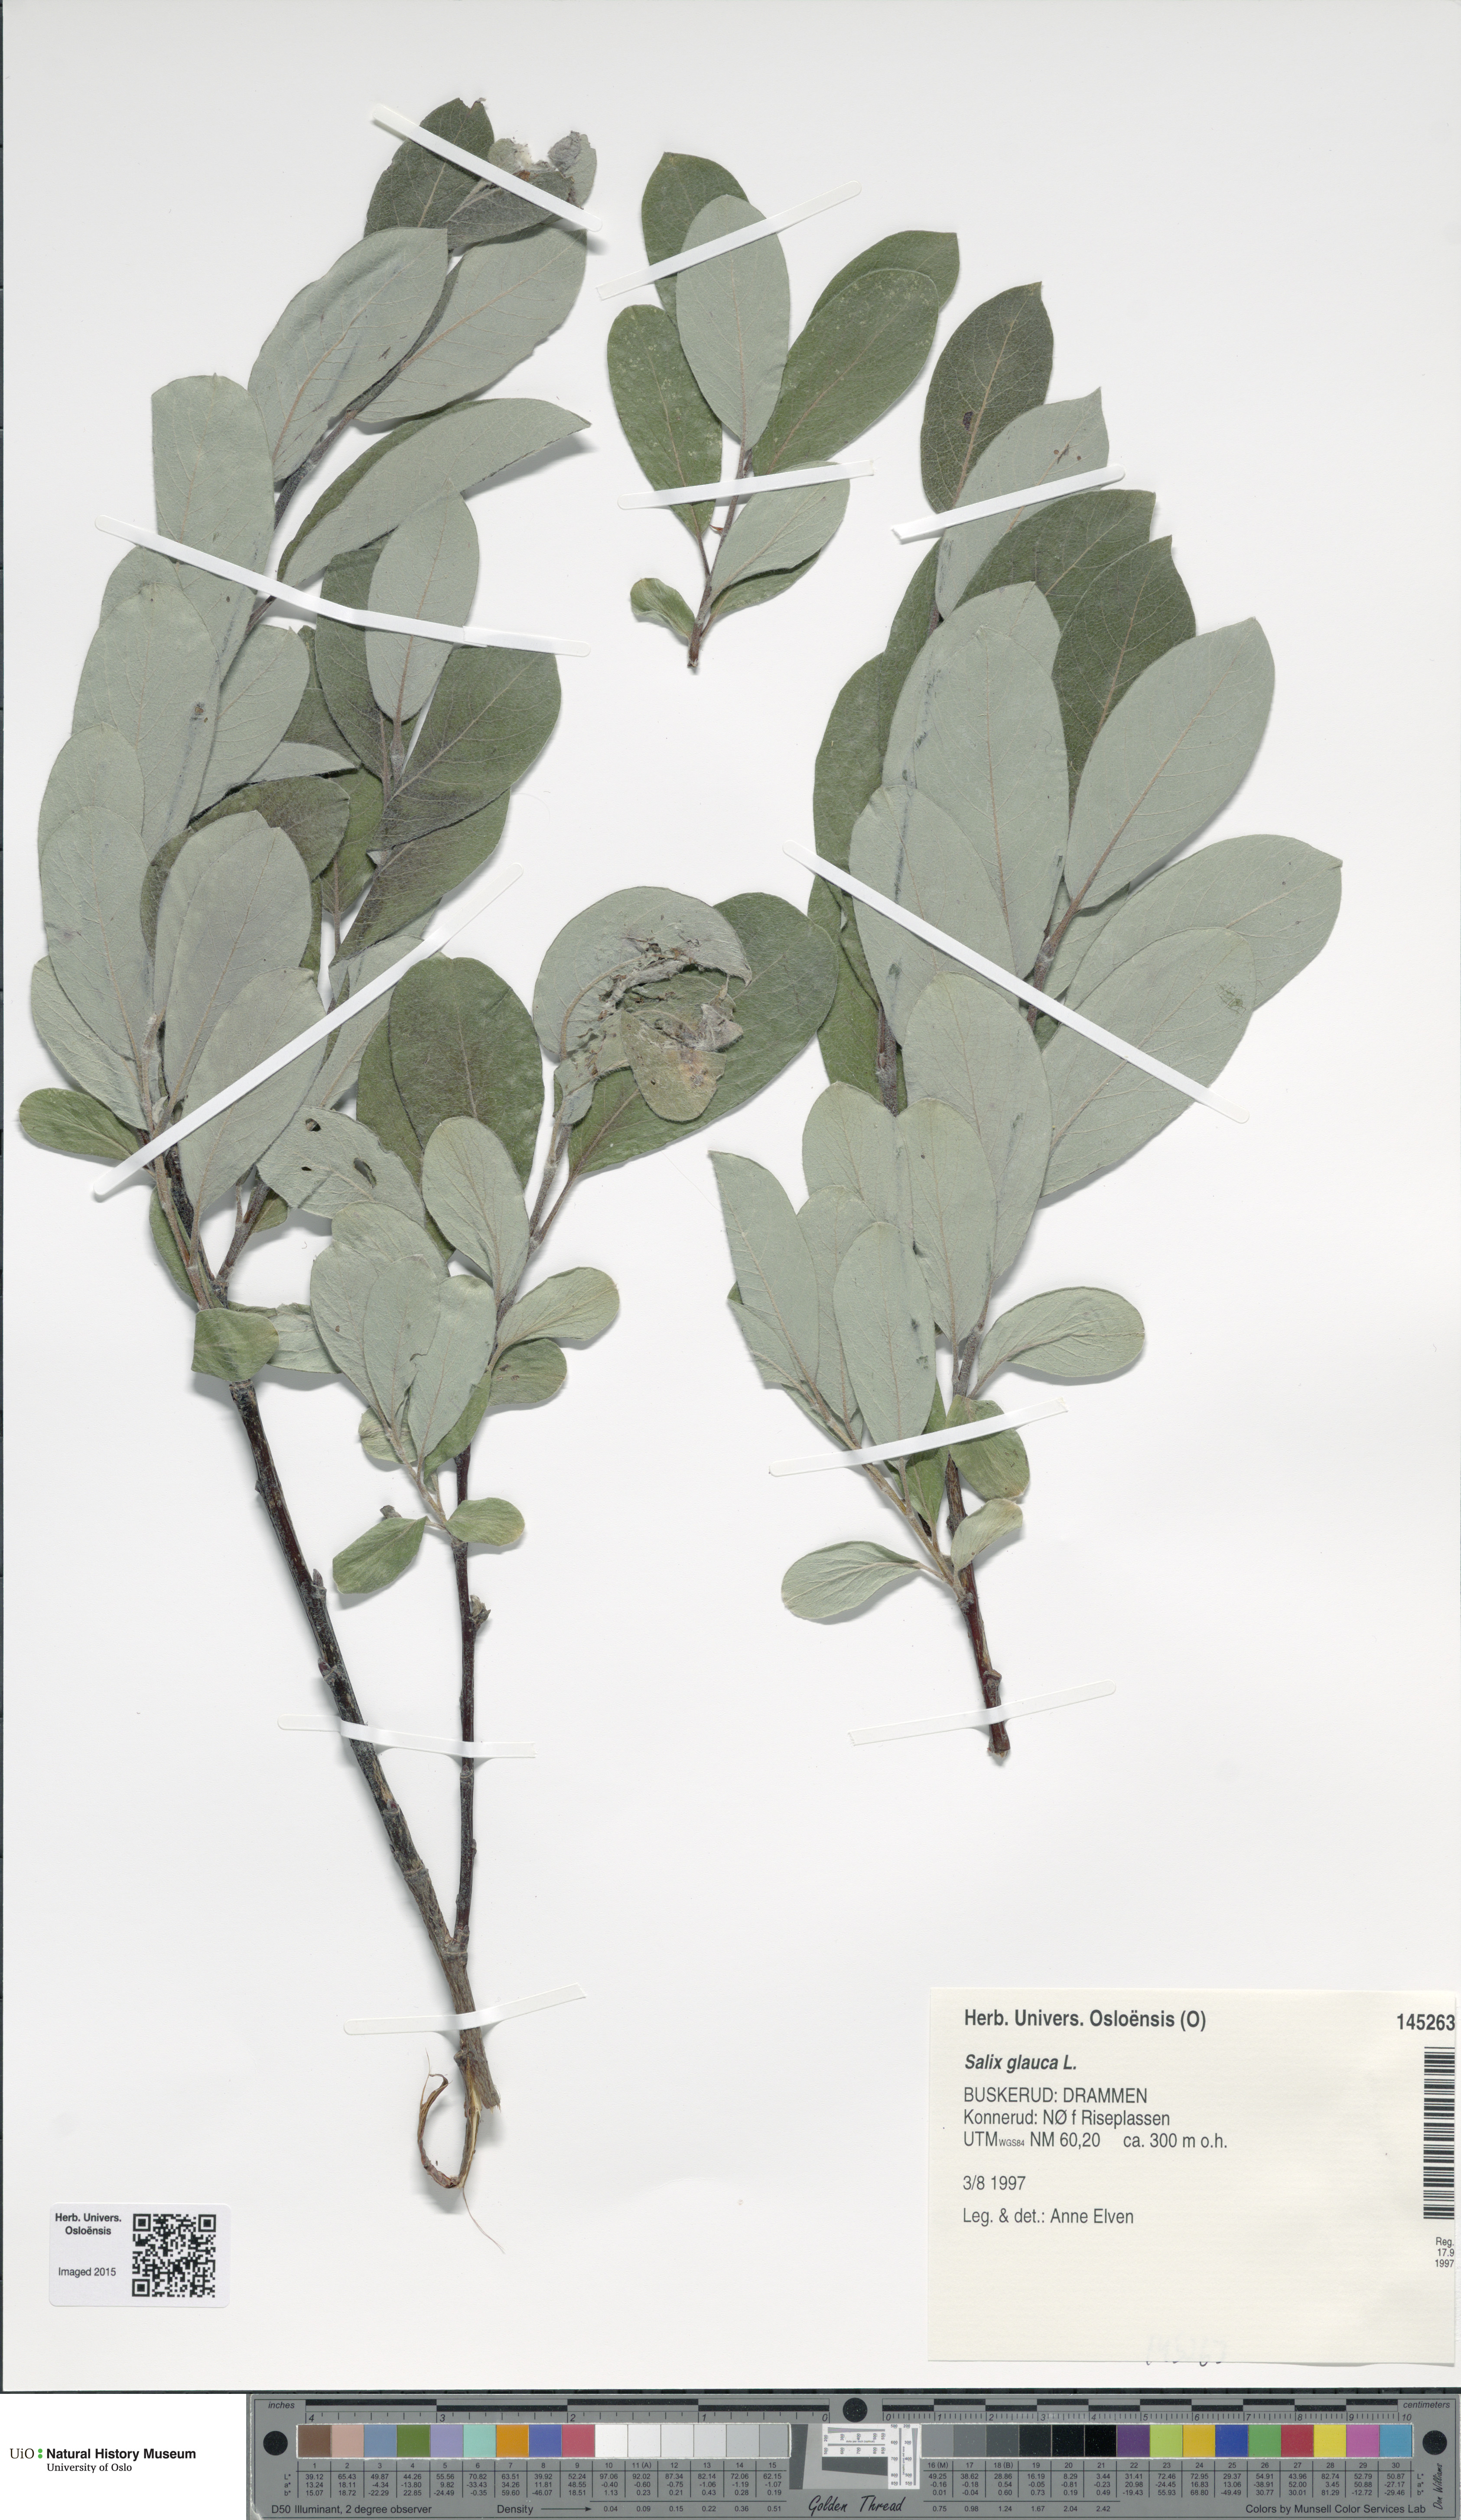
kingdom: Plantae
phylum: Tracheophyta
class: Magnoliopsida
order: Malpighiales
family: Salicaceae
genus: Salix
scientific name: Salix glauca
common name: Glaucous willow
